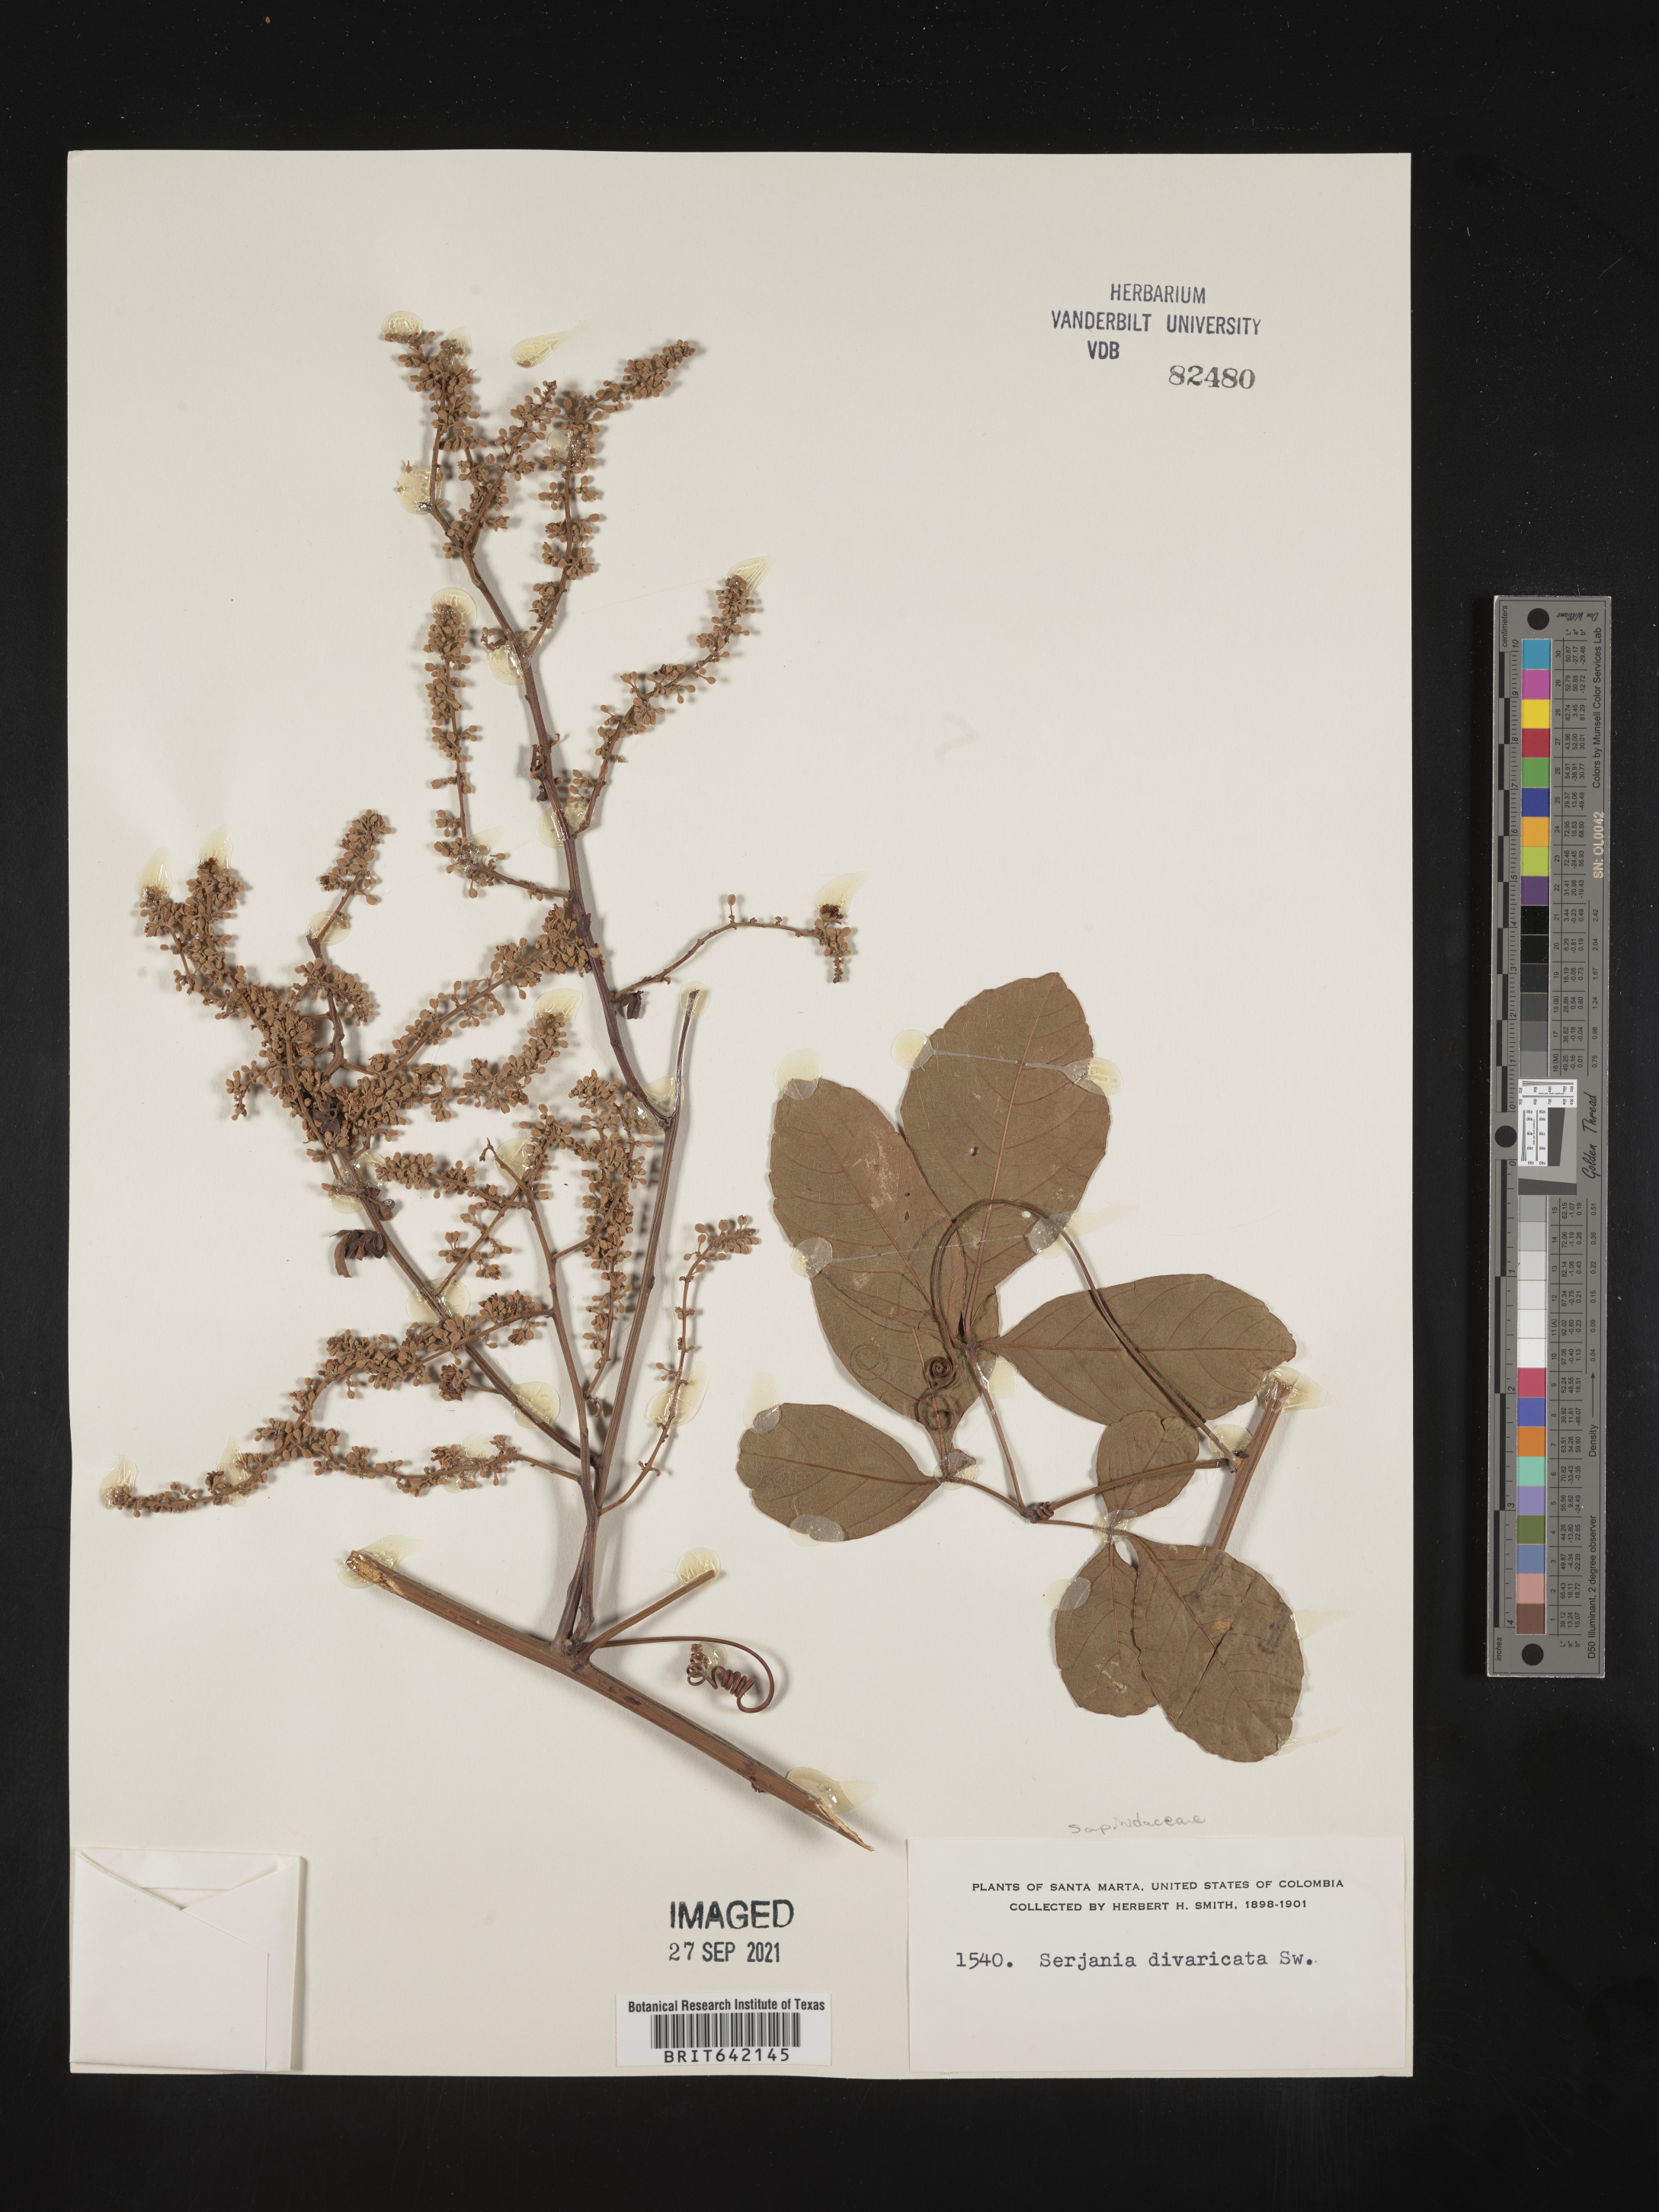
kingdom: Plantae
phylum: Tracheophyta
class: Magnoliopsida
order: Sapindales
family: Sapindaceae
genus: Serjania
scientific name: Serjania
